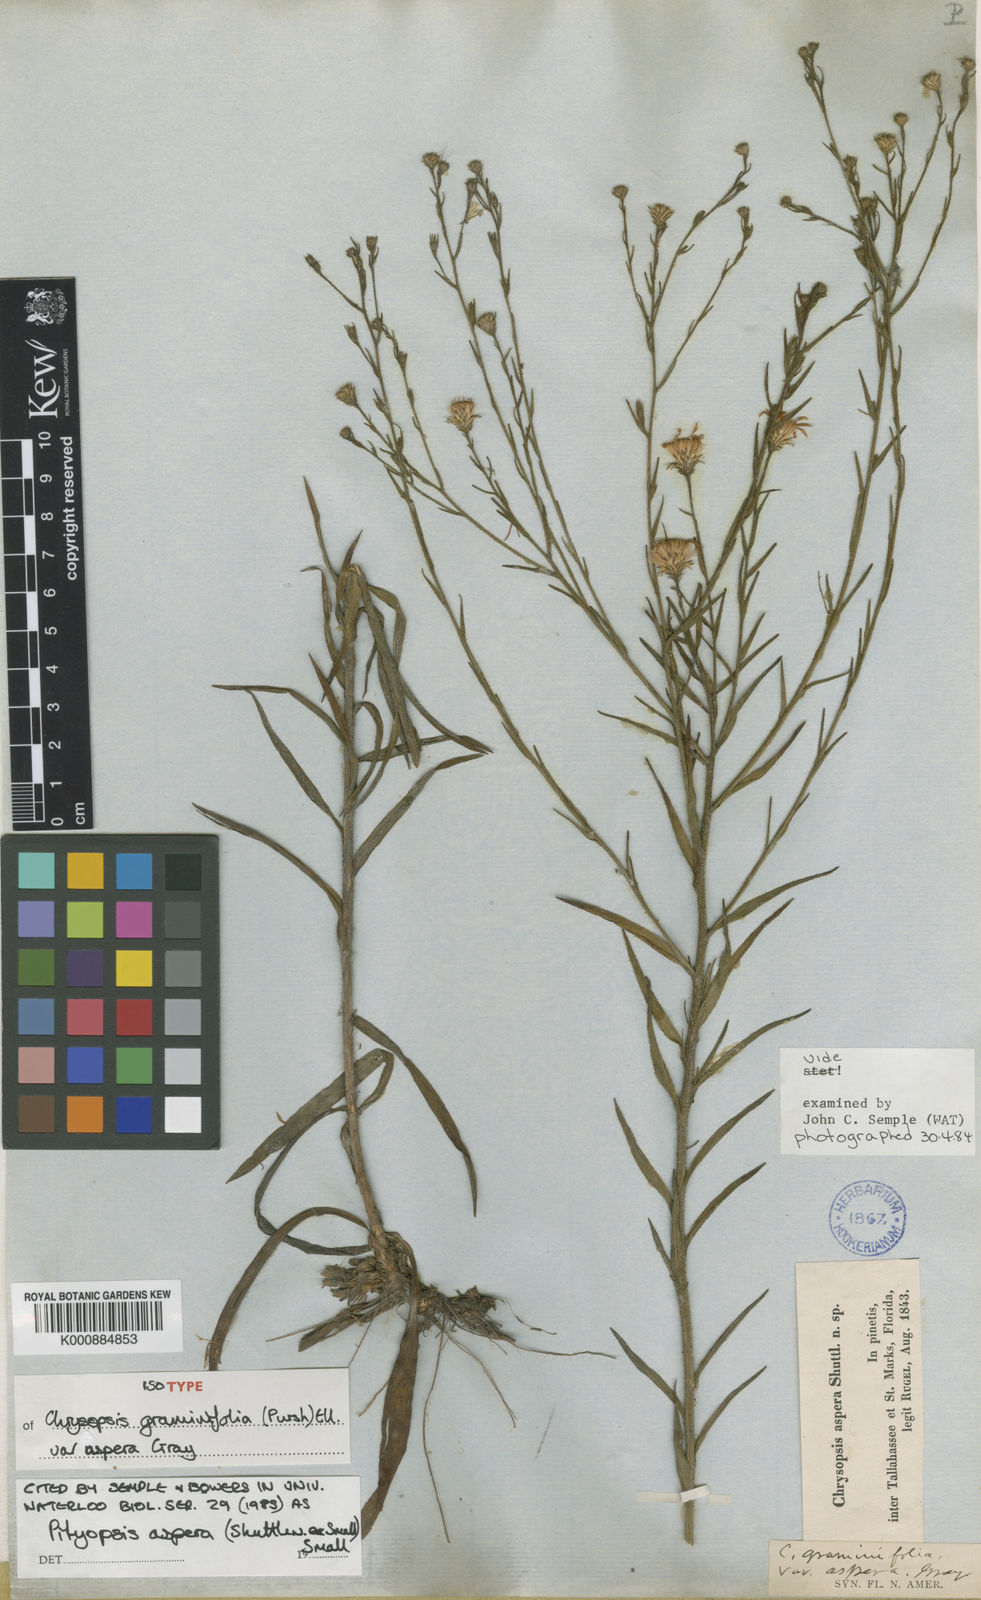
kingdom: Plantae
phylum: Tracheophyta
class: Magnoliopsida
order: Asterales
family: Asteraceae
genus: Pityopsis
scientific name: Pityopsis aspera
